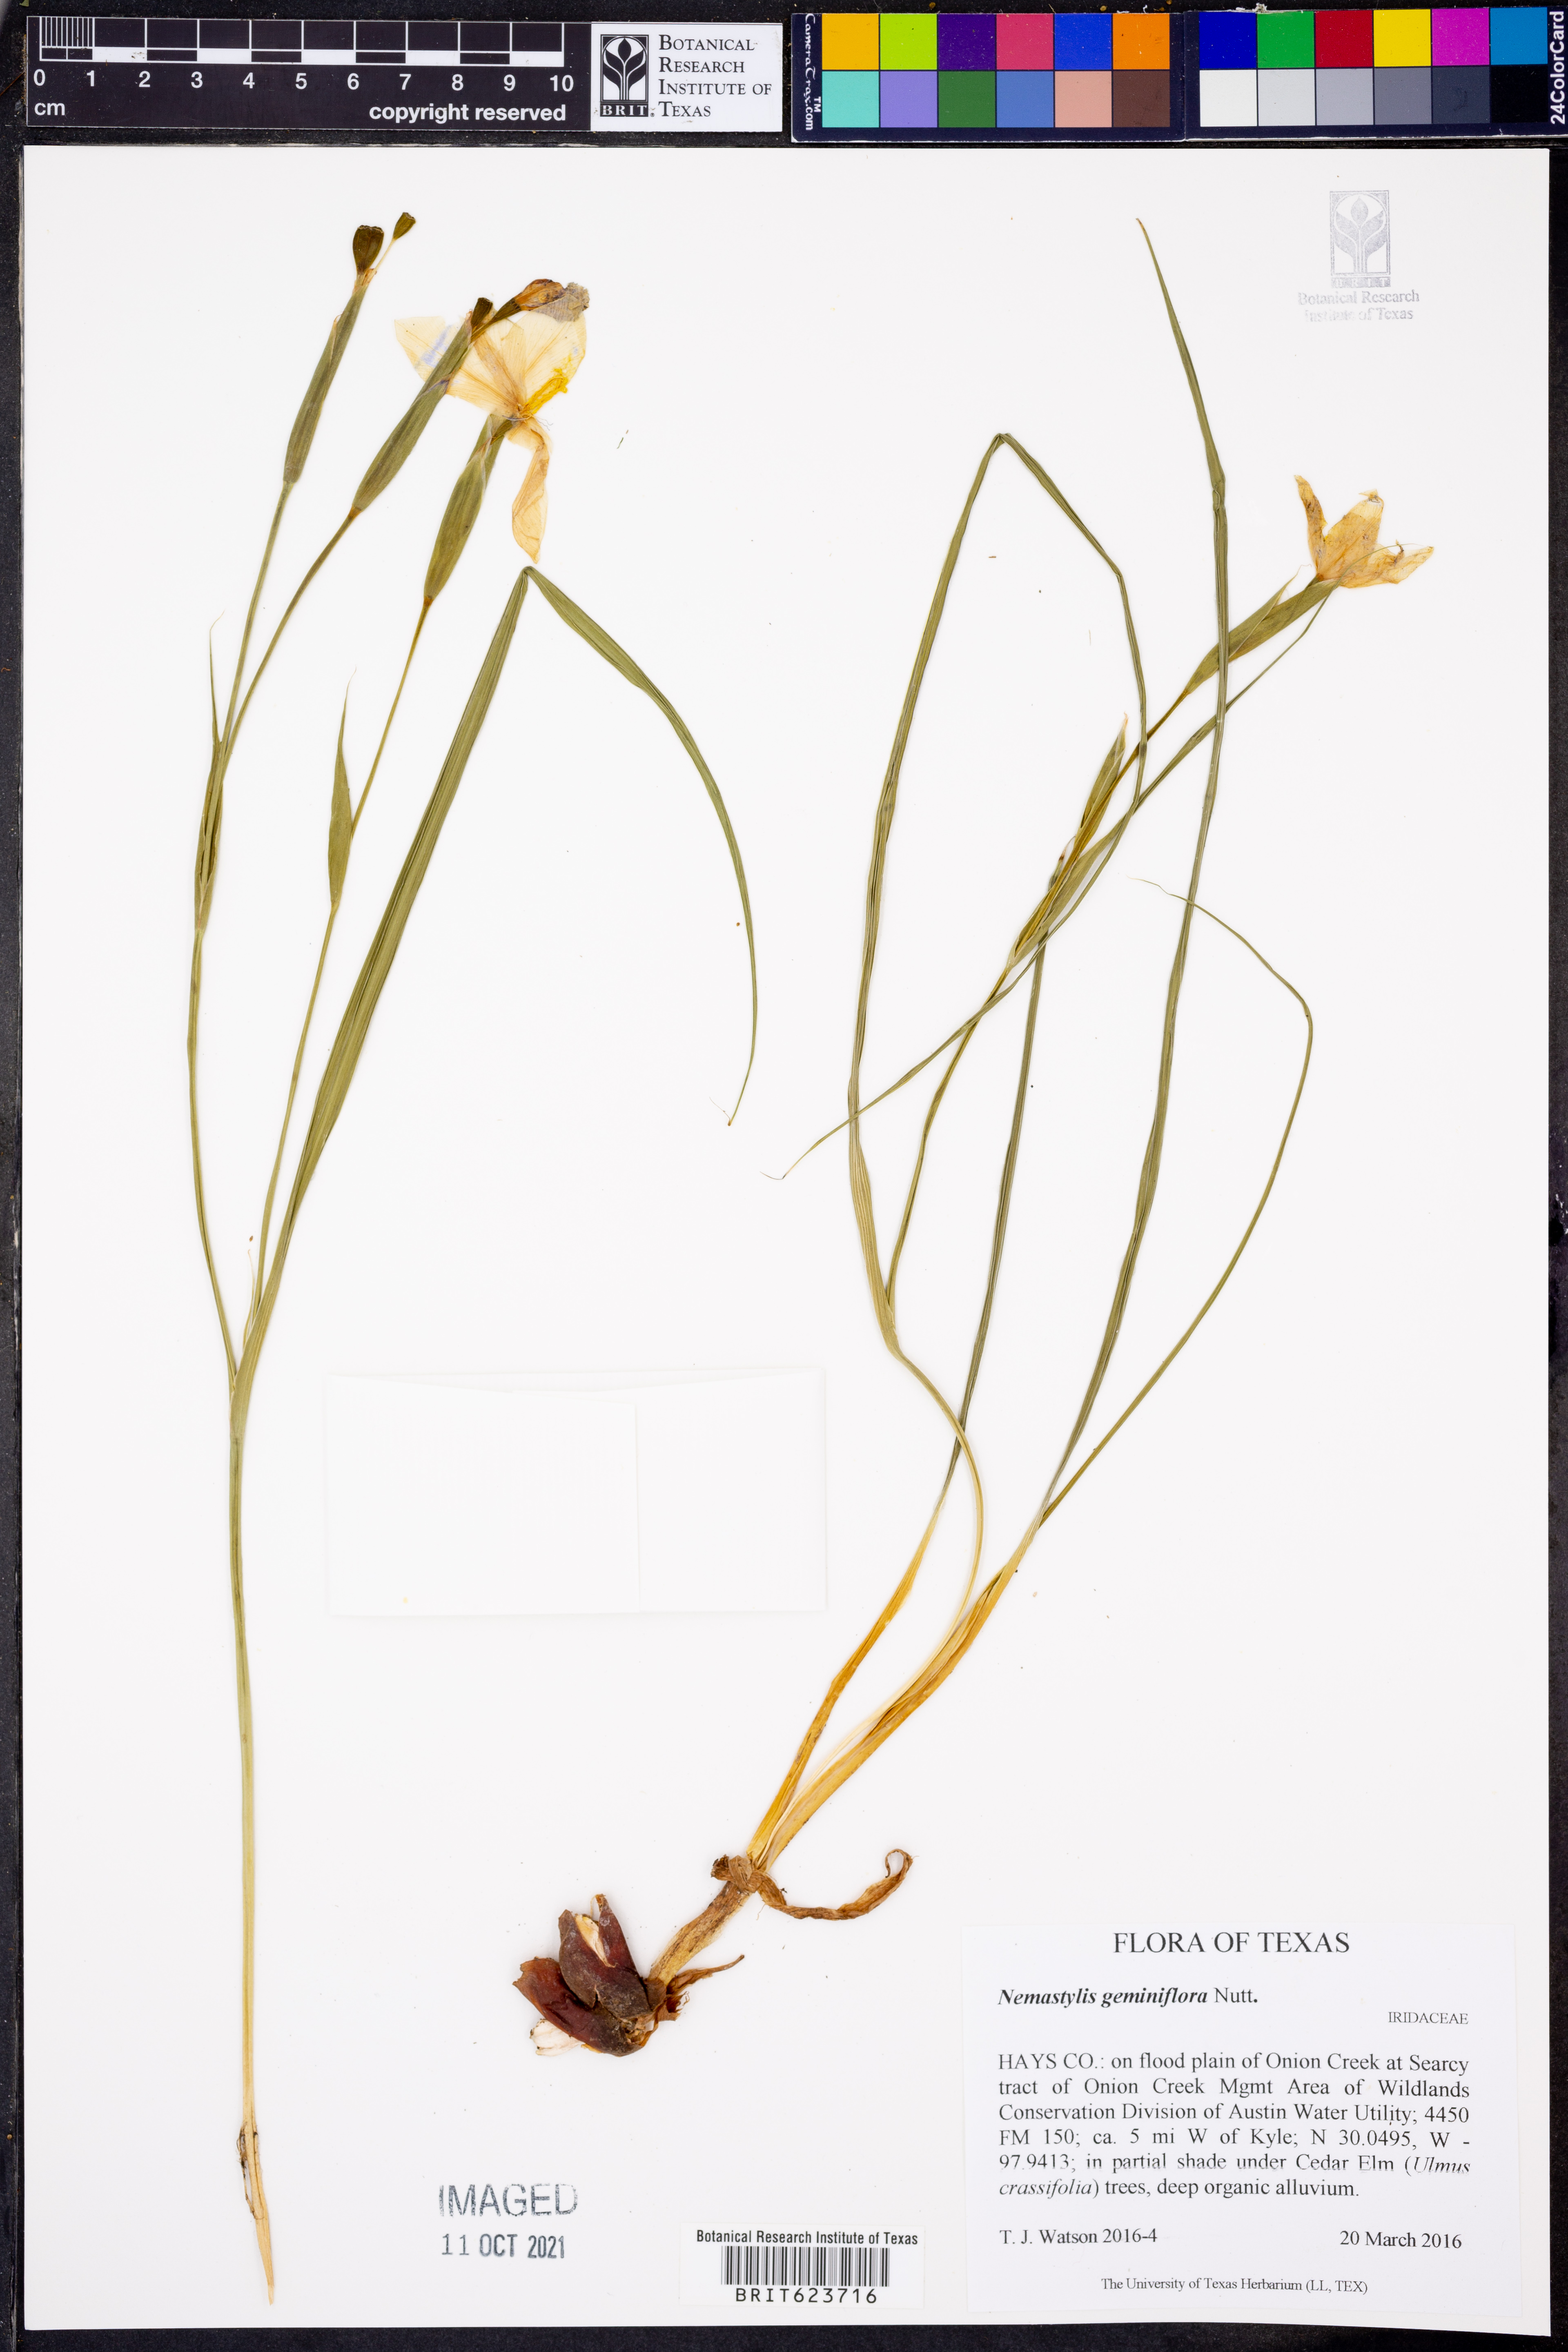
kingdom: Plantae
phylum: Tracheophyta
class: Liliopsida
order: Asparagales
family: Iridaceae
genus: Nemastylis
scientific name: Nemastylis geminiflora
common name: Prairie celestial
